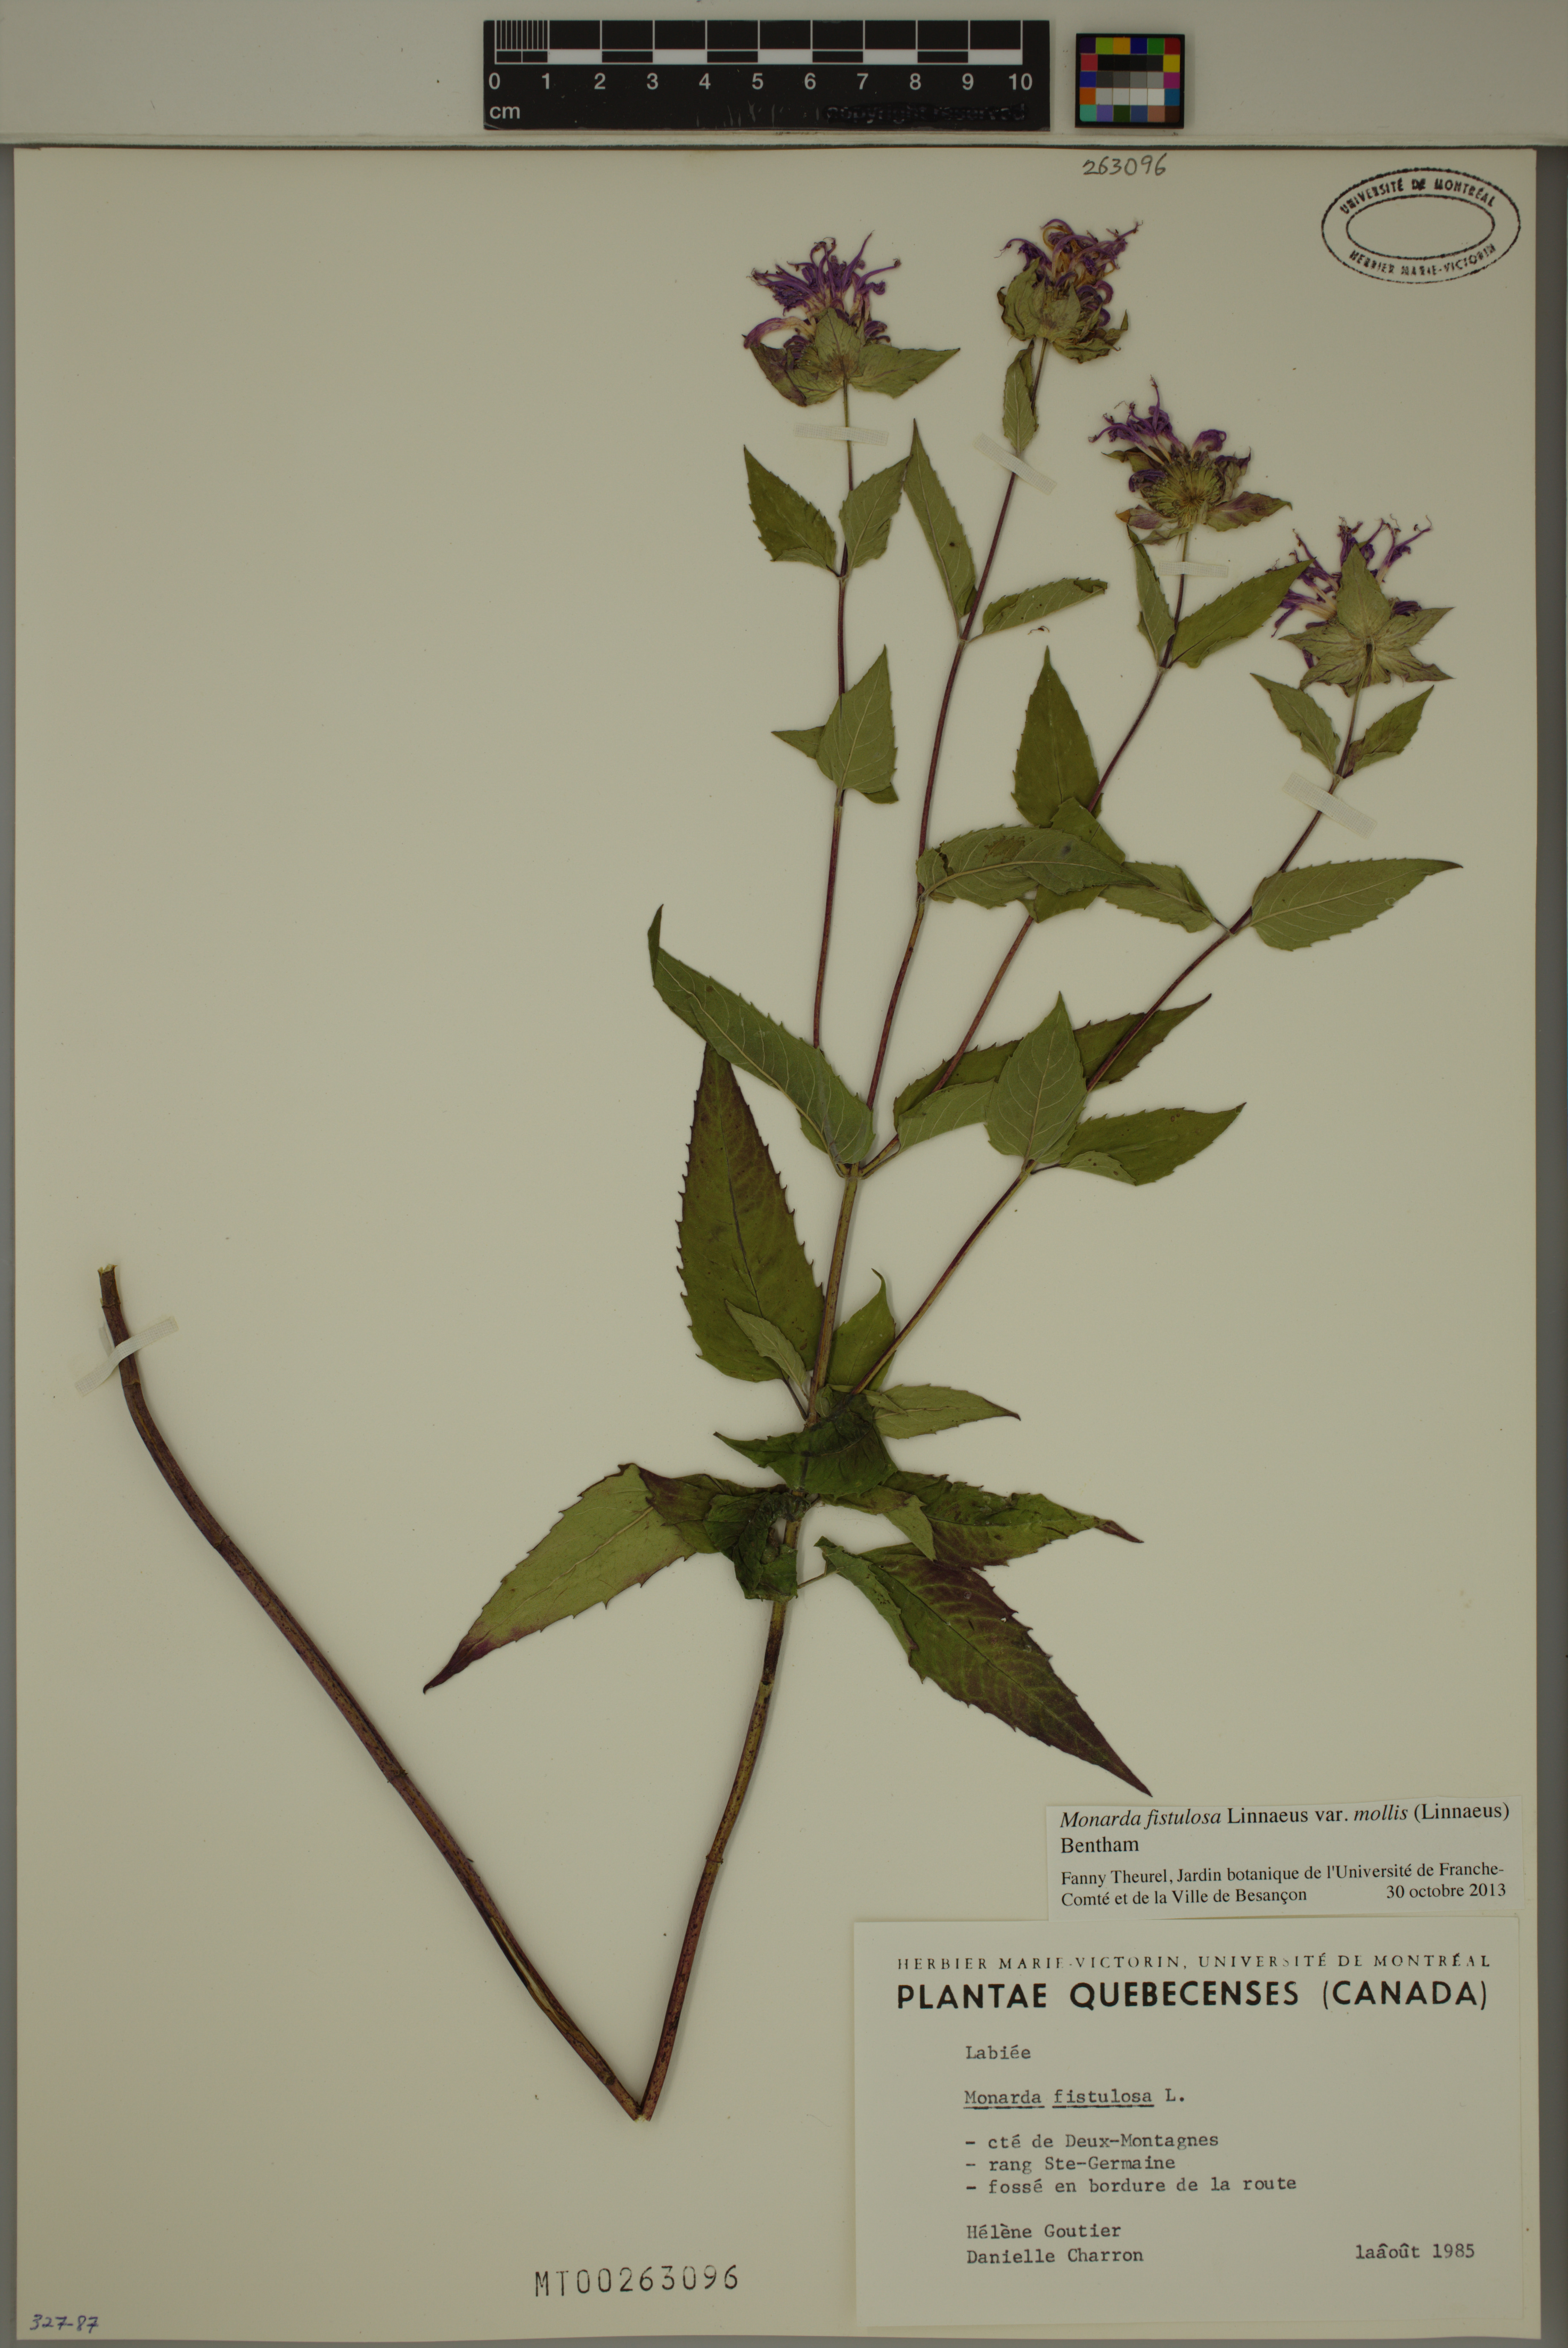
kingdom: Plantae
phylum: Tracheophyta
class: Magnoliopsida
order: Lamiales
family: Lamiaceae
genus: Monarda
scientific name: Monarda fistulosa
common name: Purple beebalm
